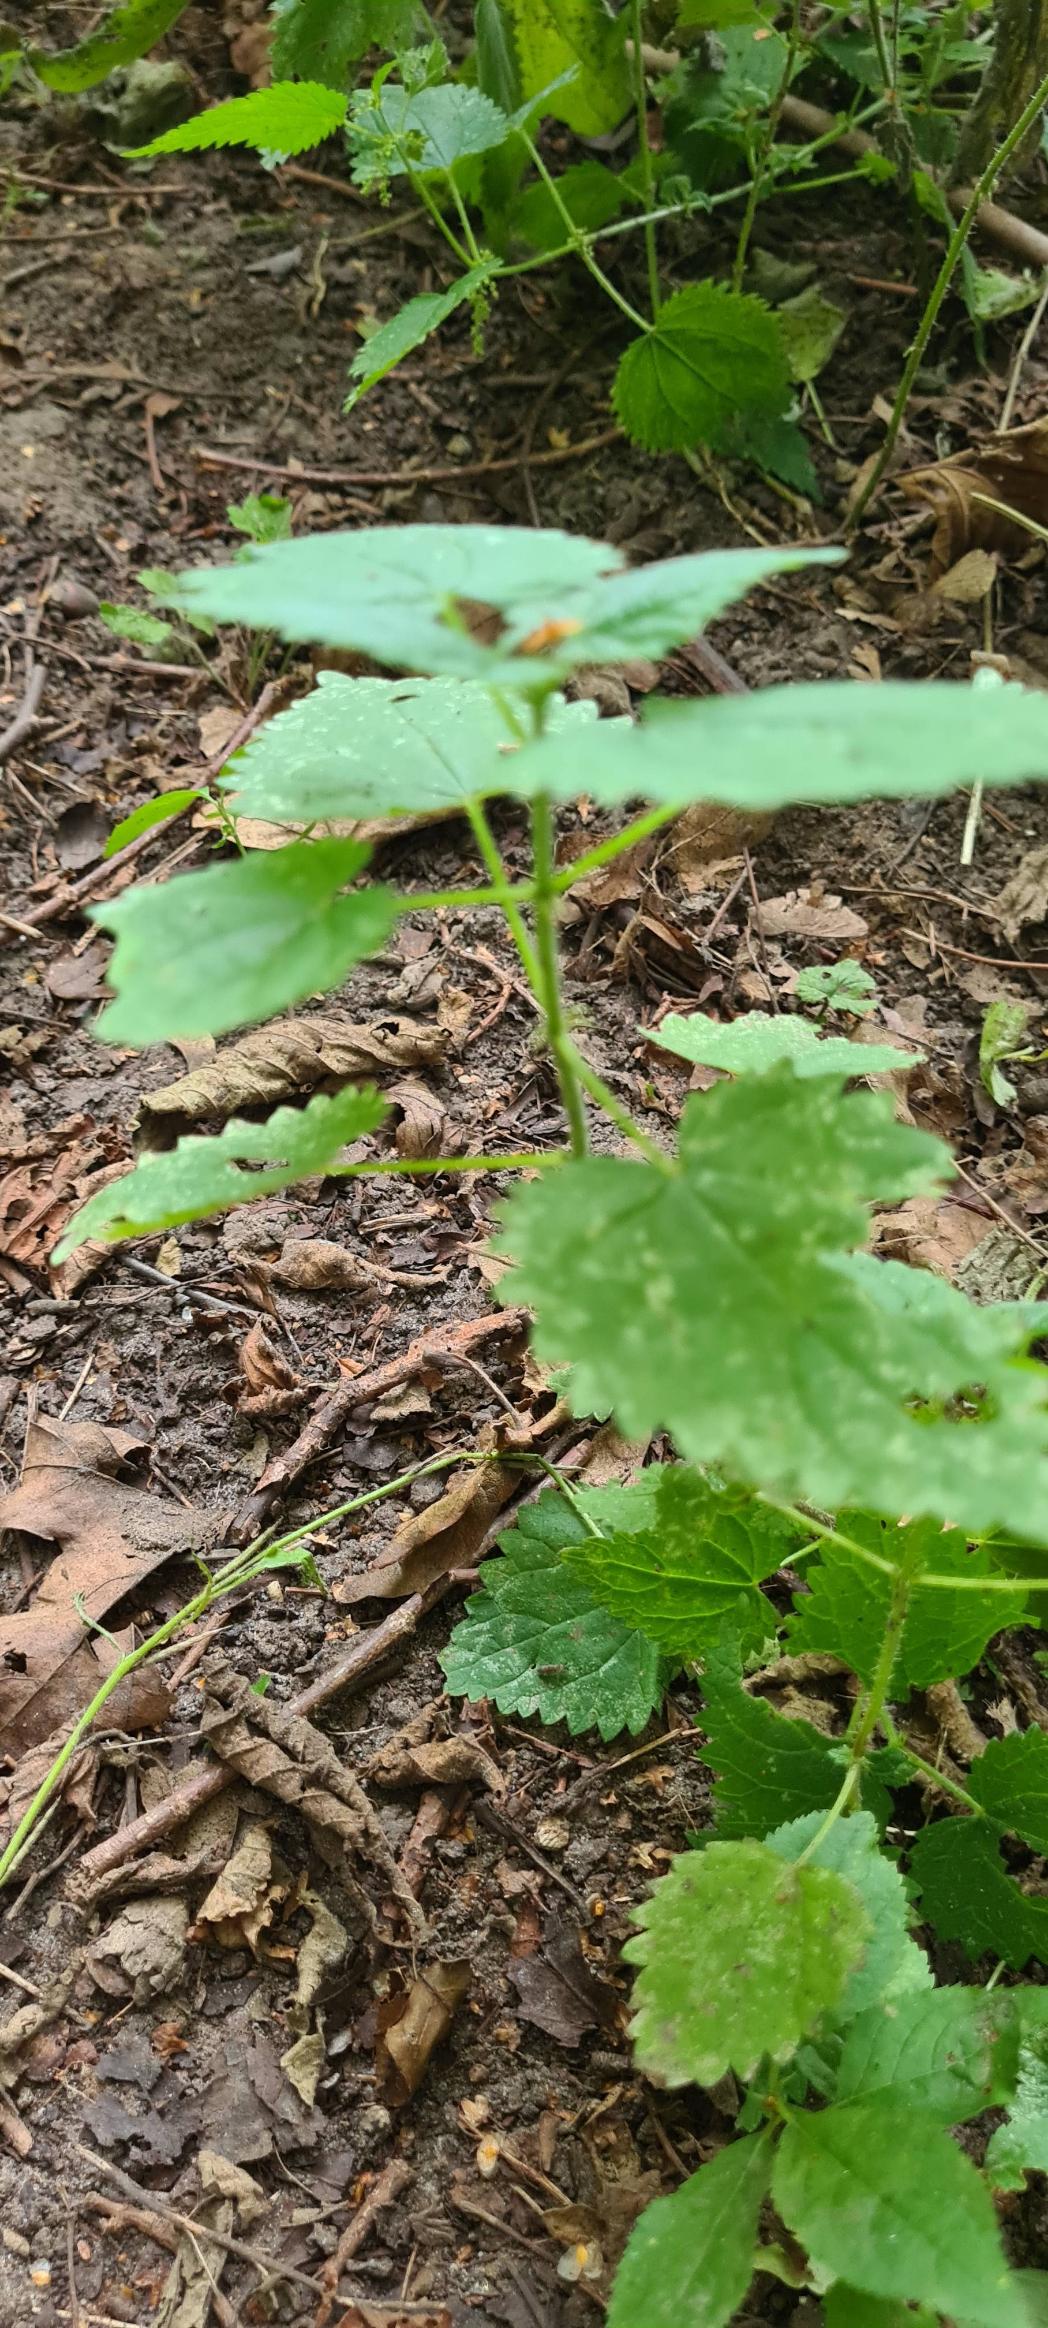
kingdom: Plantae
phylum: Tracheophyta
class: Magnoliopsida
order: Rosales
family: Urticaceae
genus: Urtica
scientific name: Urtica dioica
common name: Stor nælde
